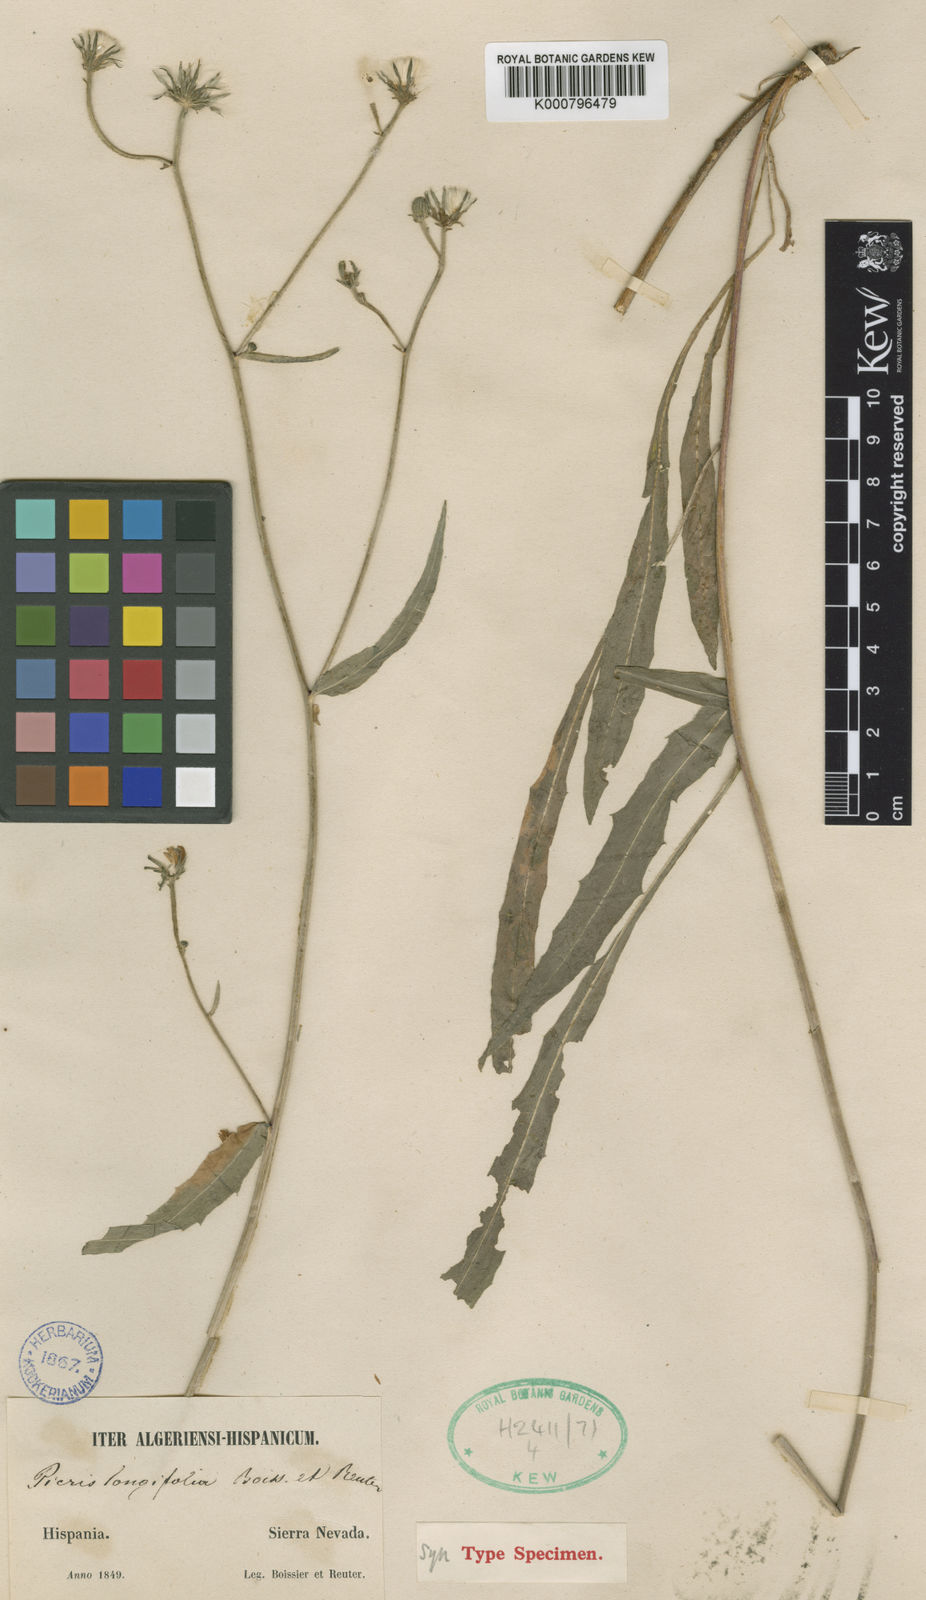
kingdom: Plantae
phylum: Tracheophyta
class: Magnoliopsida
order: Asterales
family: Asteraceae
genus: Picris
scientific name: Picris hieracioides
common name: Hawkweed oxtongue
